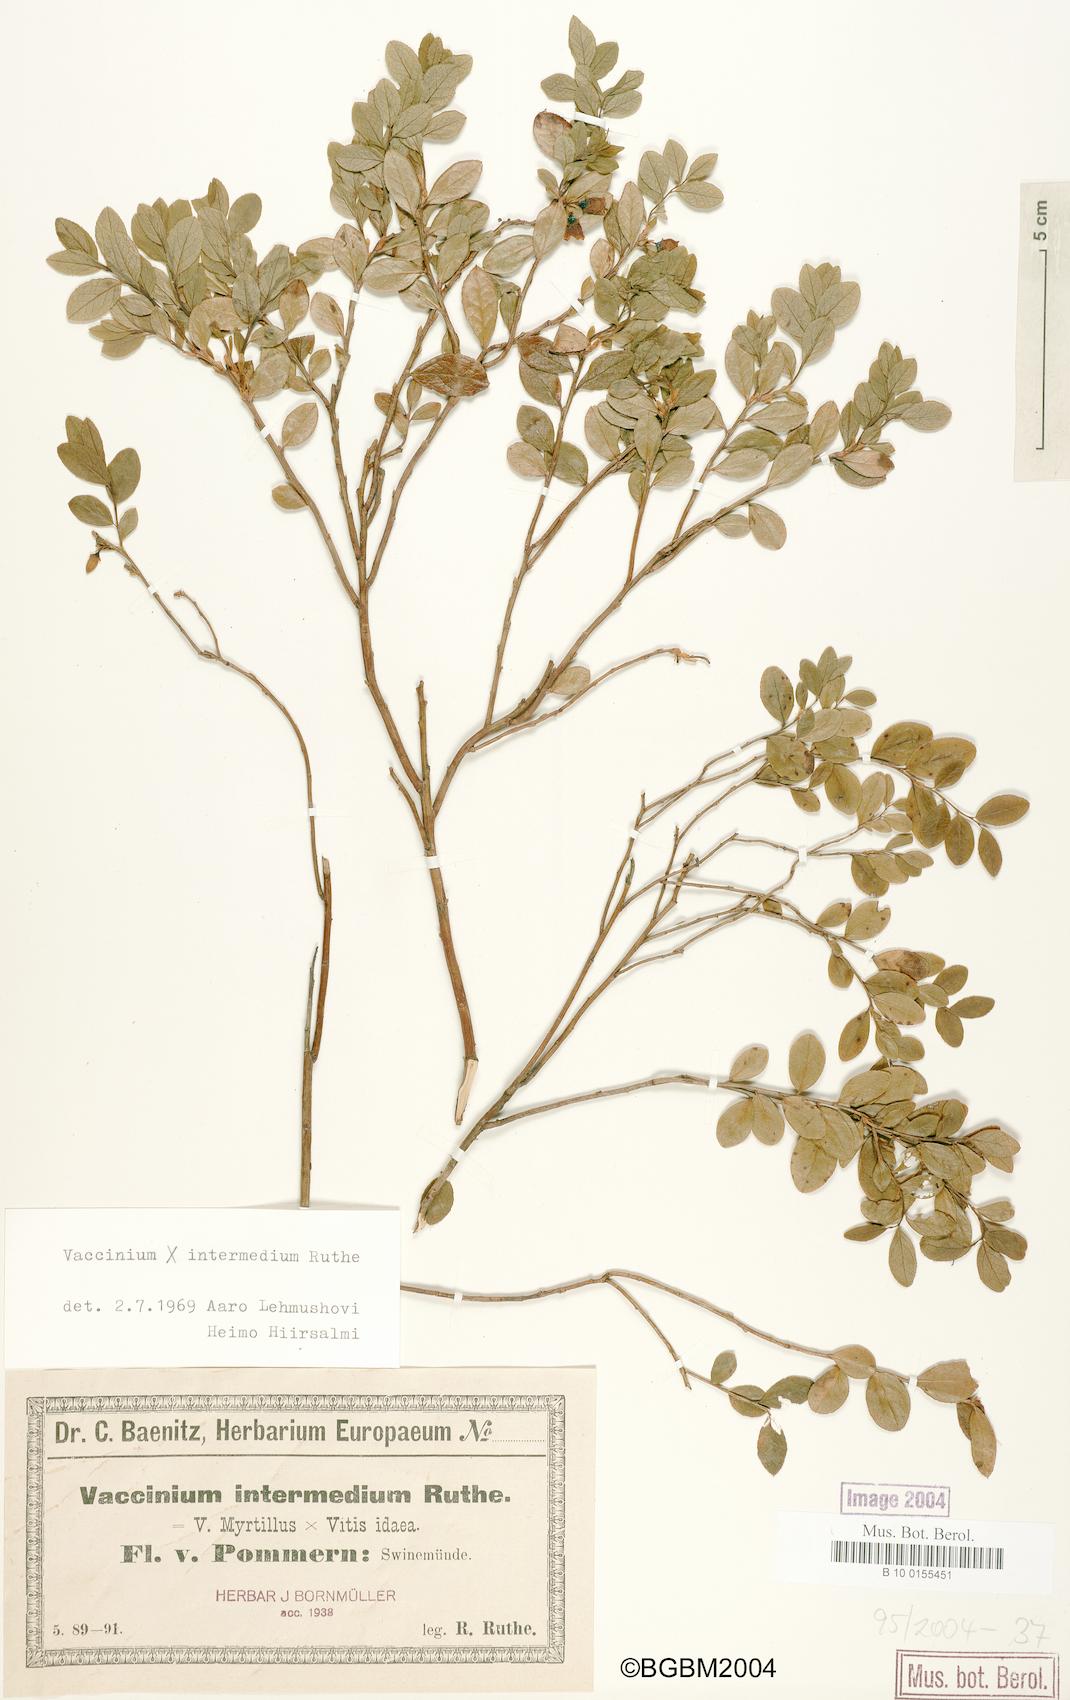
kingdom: Plantae
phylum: Tracheophyta
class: Magnoliopsida
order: Ericales
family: Ericaceae
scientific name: Ericaceae
